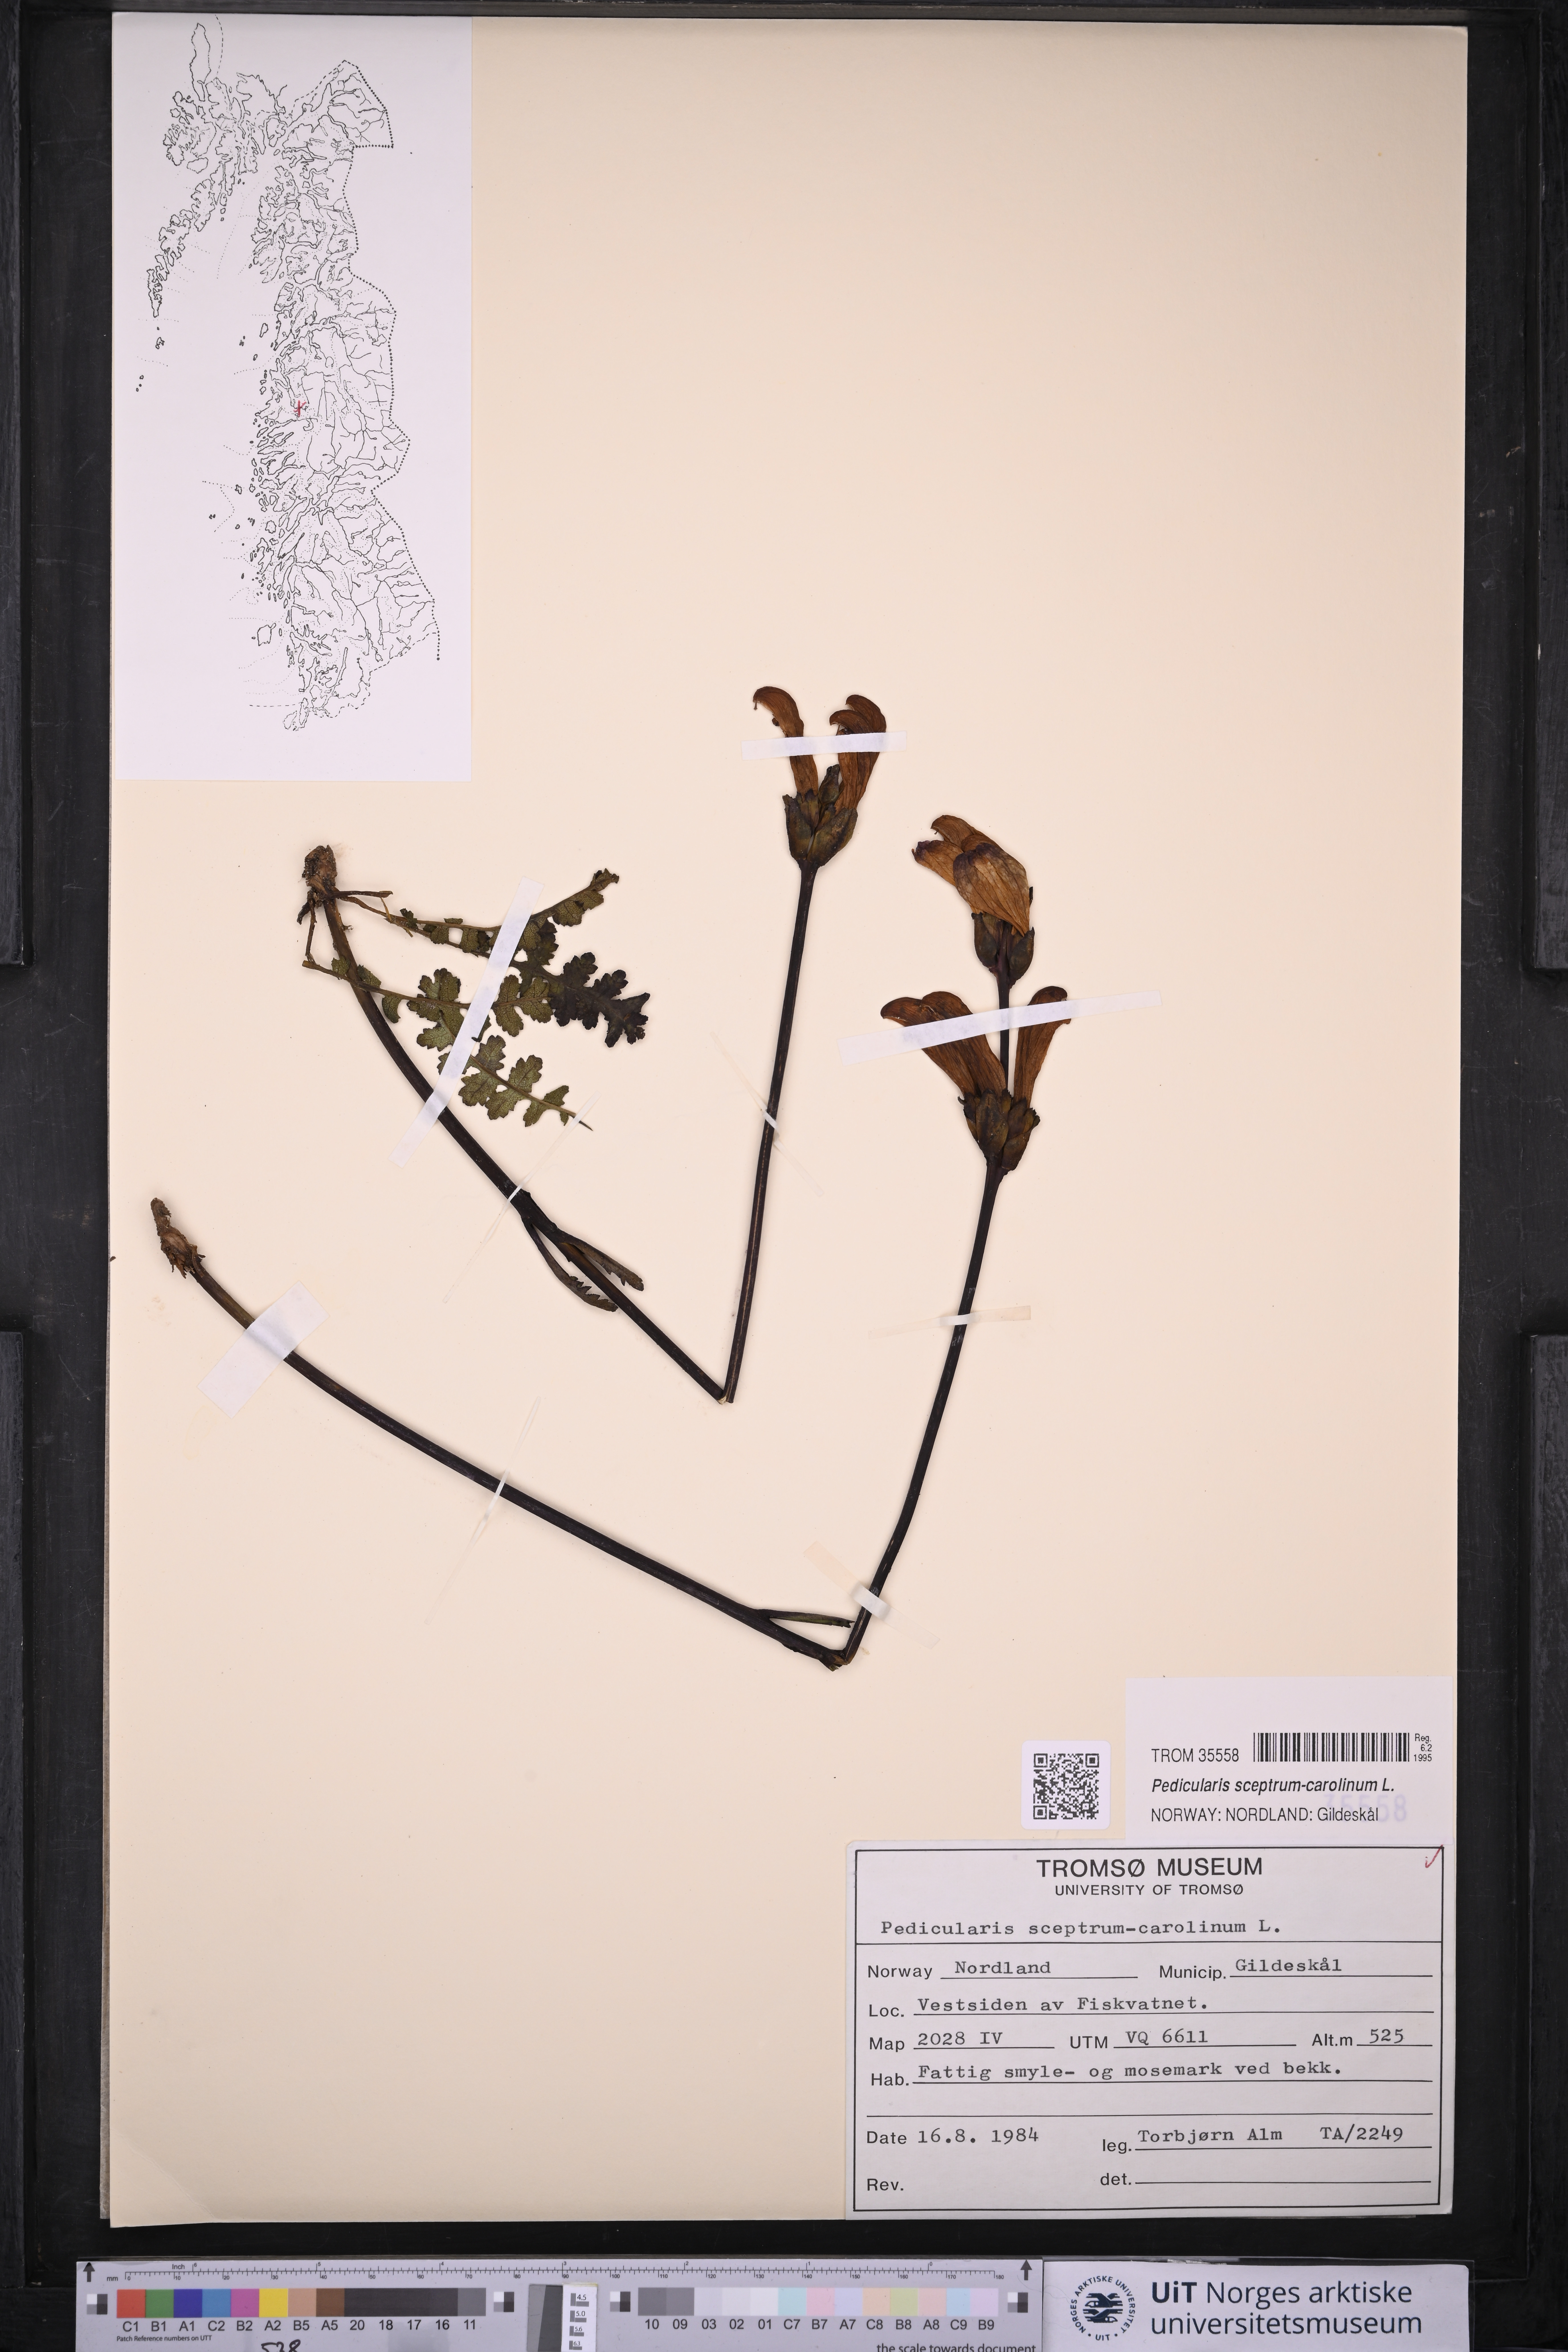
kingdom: Plantae
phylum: Tracheophyta
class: Magnoliopsida
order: Lamiales
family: Orobanchaceae
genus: Pedicularis
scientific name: Pedicularis sceptrum-carolinum
